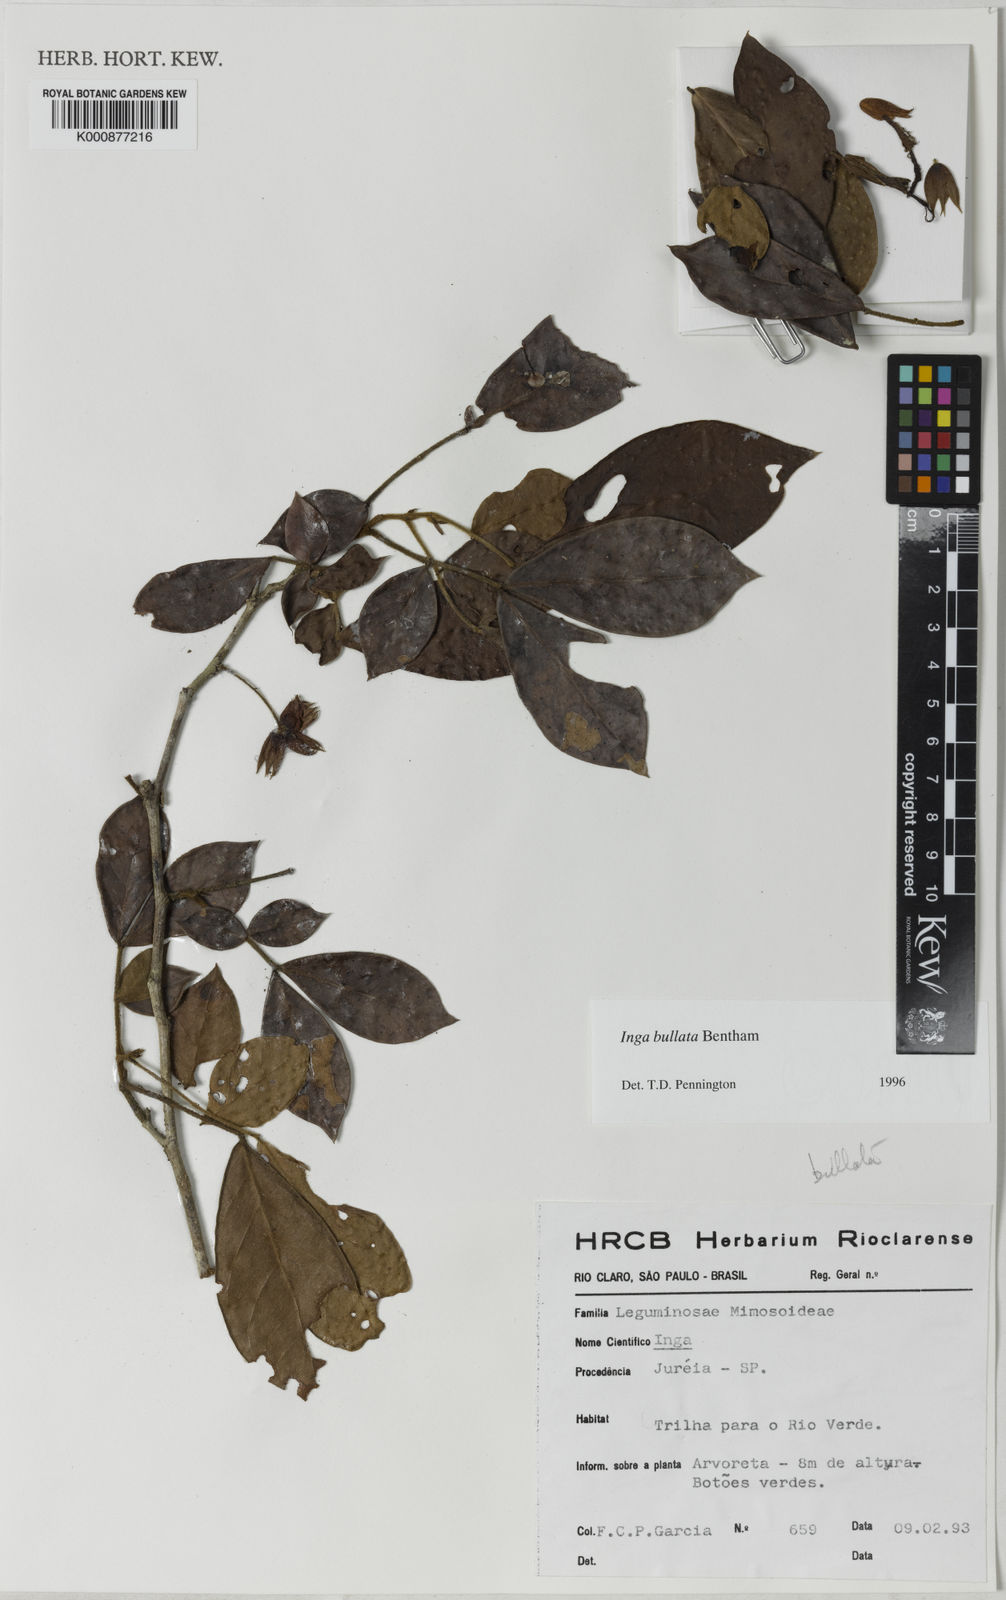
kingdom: Plantae
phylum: Tracheophyta
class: Magnoliopsida
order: Fabales
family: Fabaceae
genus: Inga
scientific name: Inga bullata
